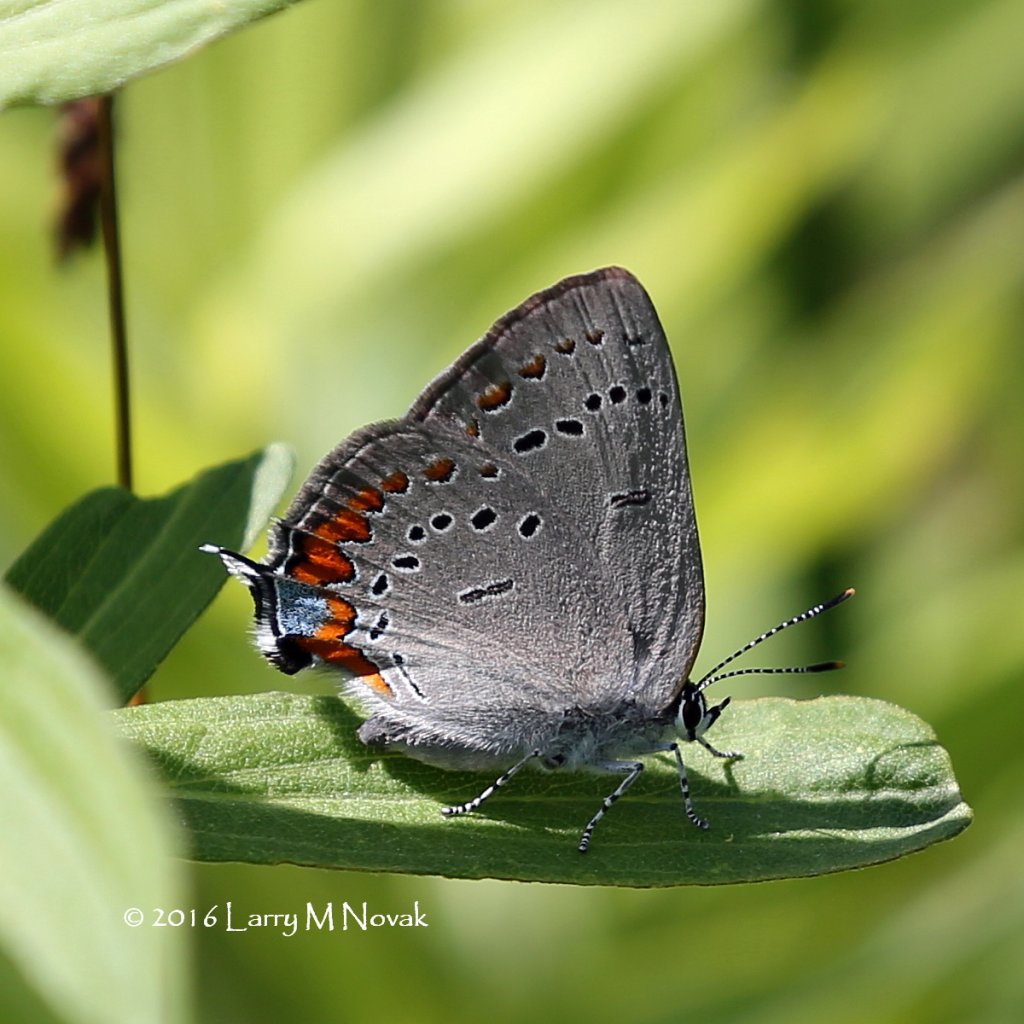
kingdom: Animalia
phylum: Arthropoda
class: Insecta
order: Lepidoptera
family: Lycaenidae
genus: Strymon
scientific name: Strymon acadica
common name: Acadian Hairstreak
